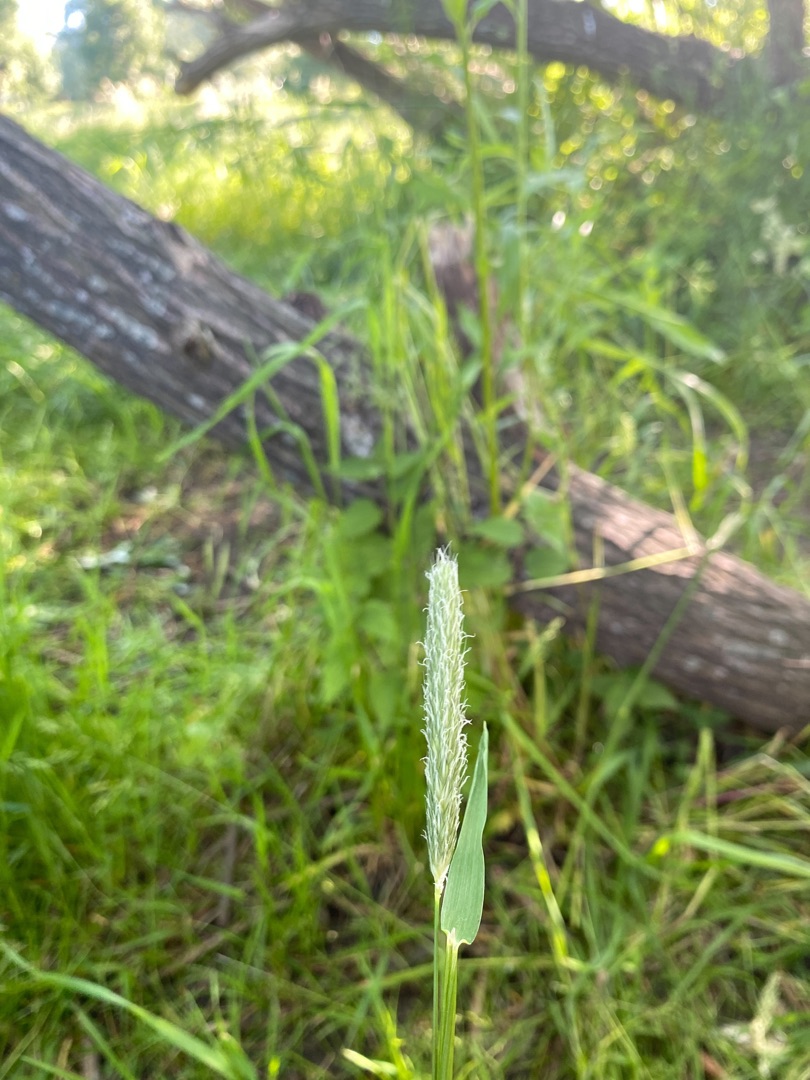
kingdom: Plantae
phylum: Tracheophyta
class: Liliopsida
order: Poales
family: Poaceae
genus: Alopecurus
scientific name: Alopecurus pratensis
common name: Eng-rævehale
